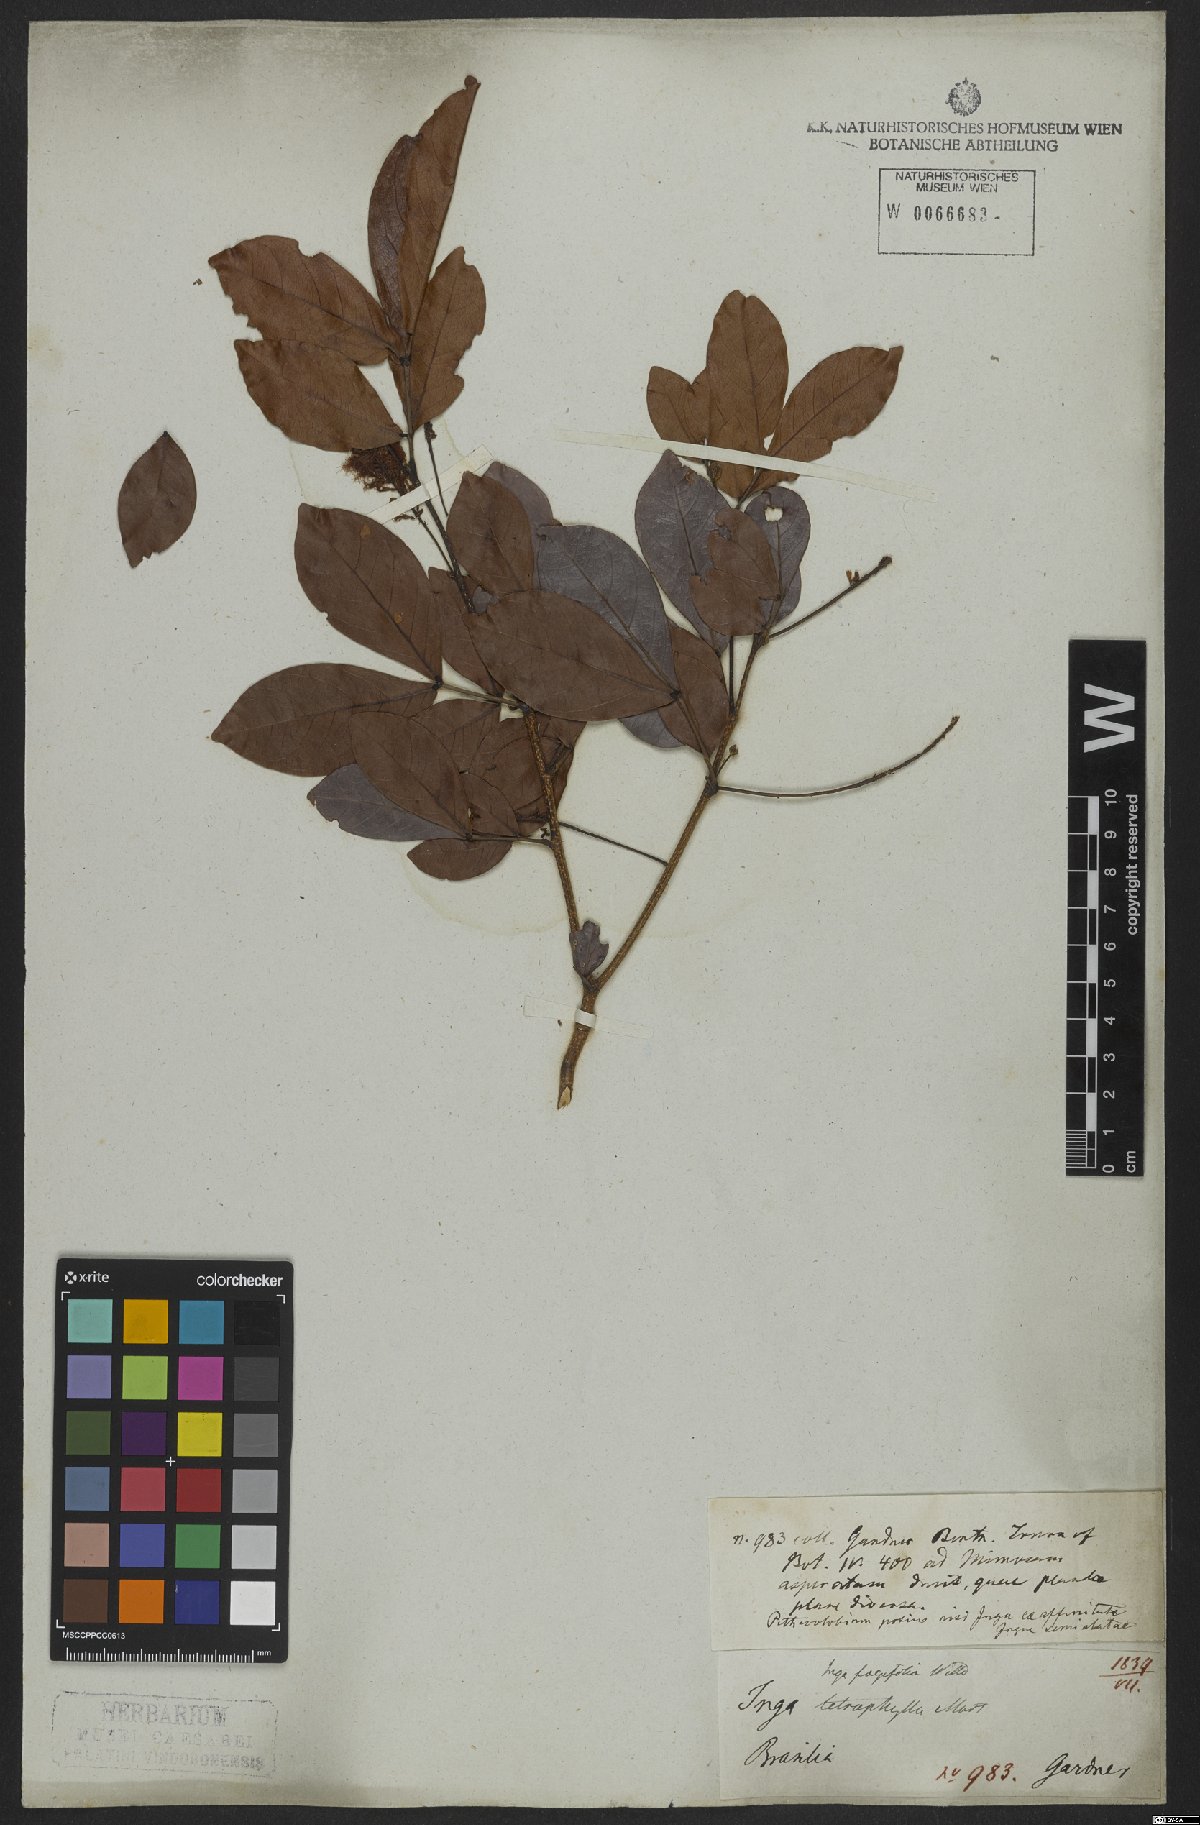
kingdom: Plantae
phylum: Tracheophyta
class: Magnoliopsida
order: Fabales
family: Fabaceae
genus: Inga
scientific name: Inga laurina
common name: Red wood
